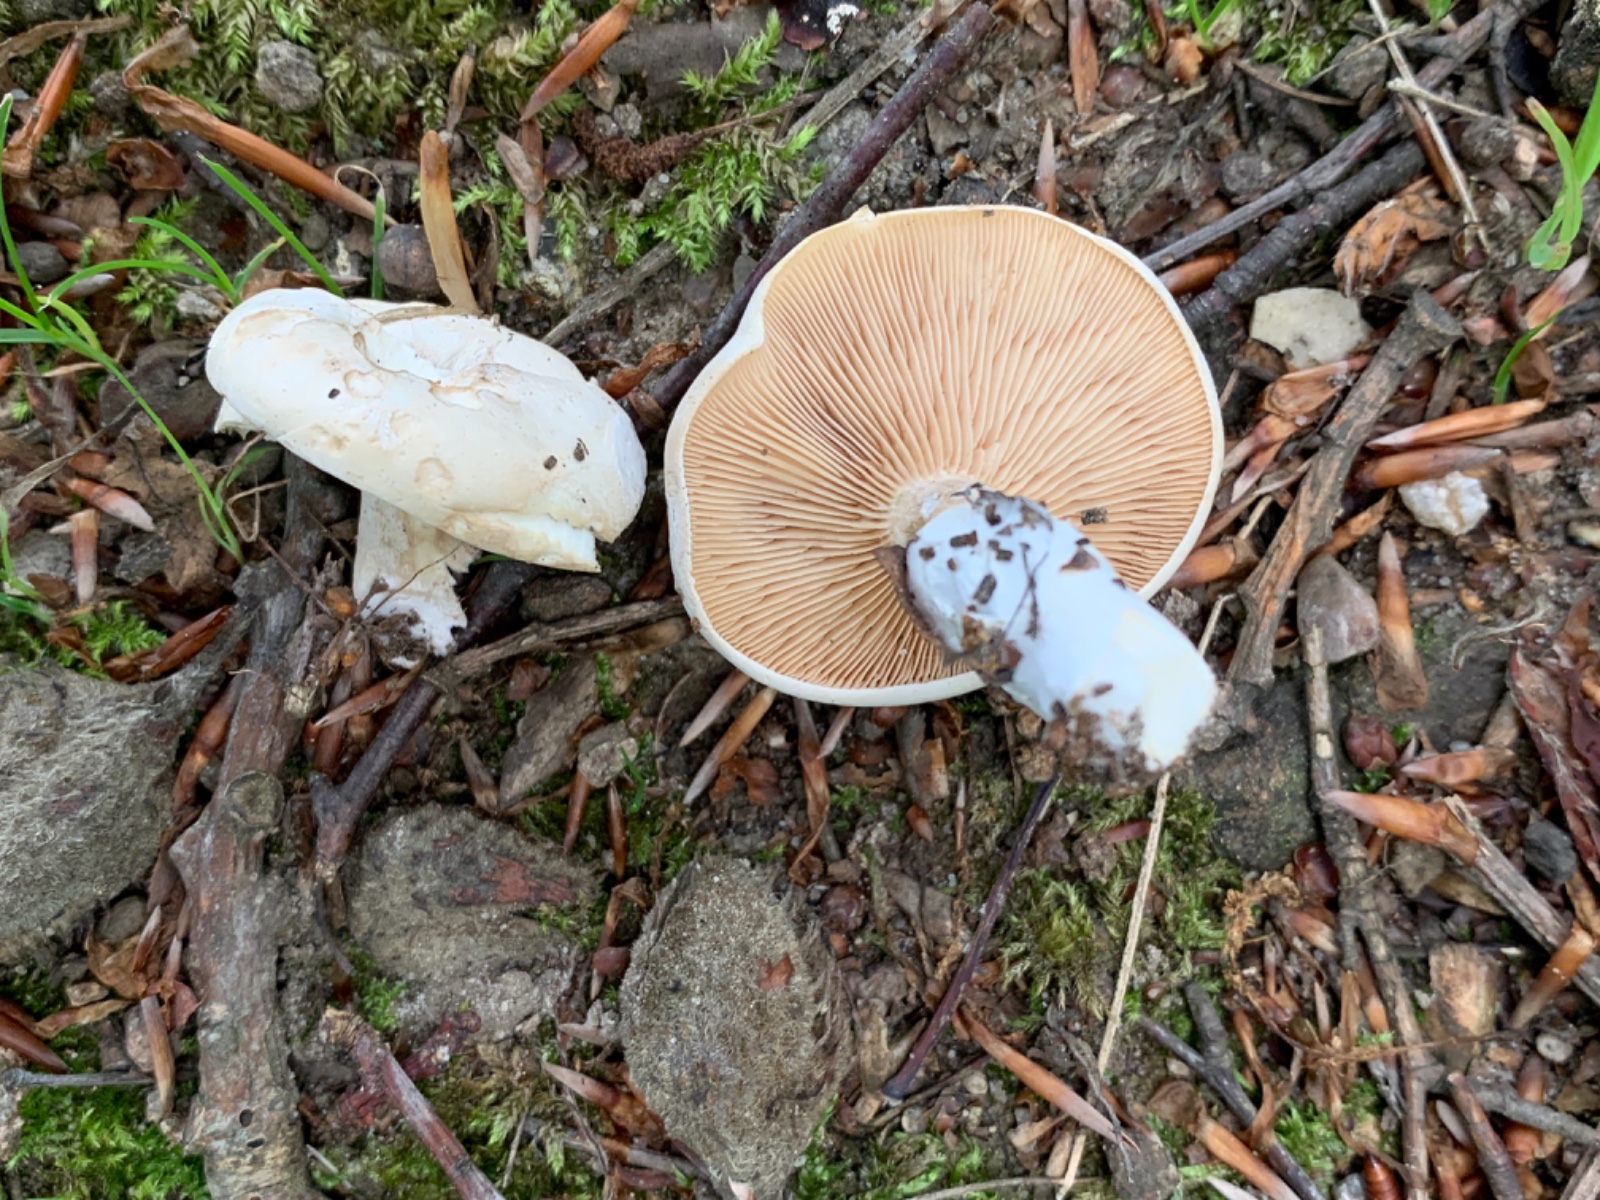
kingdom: Fungi
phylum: Basidiomycota
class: Agaricomycetes
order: Agaricales
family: Entolomataceae
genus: Clitopilus
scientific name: Clitopilus prunulus
